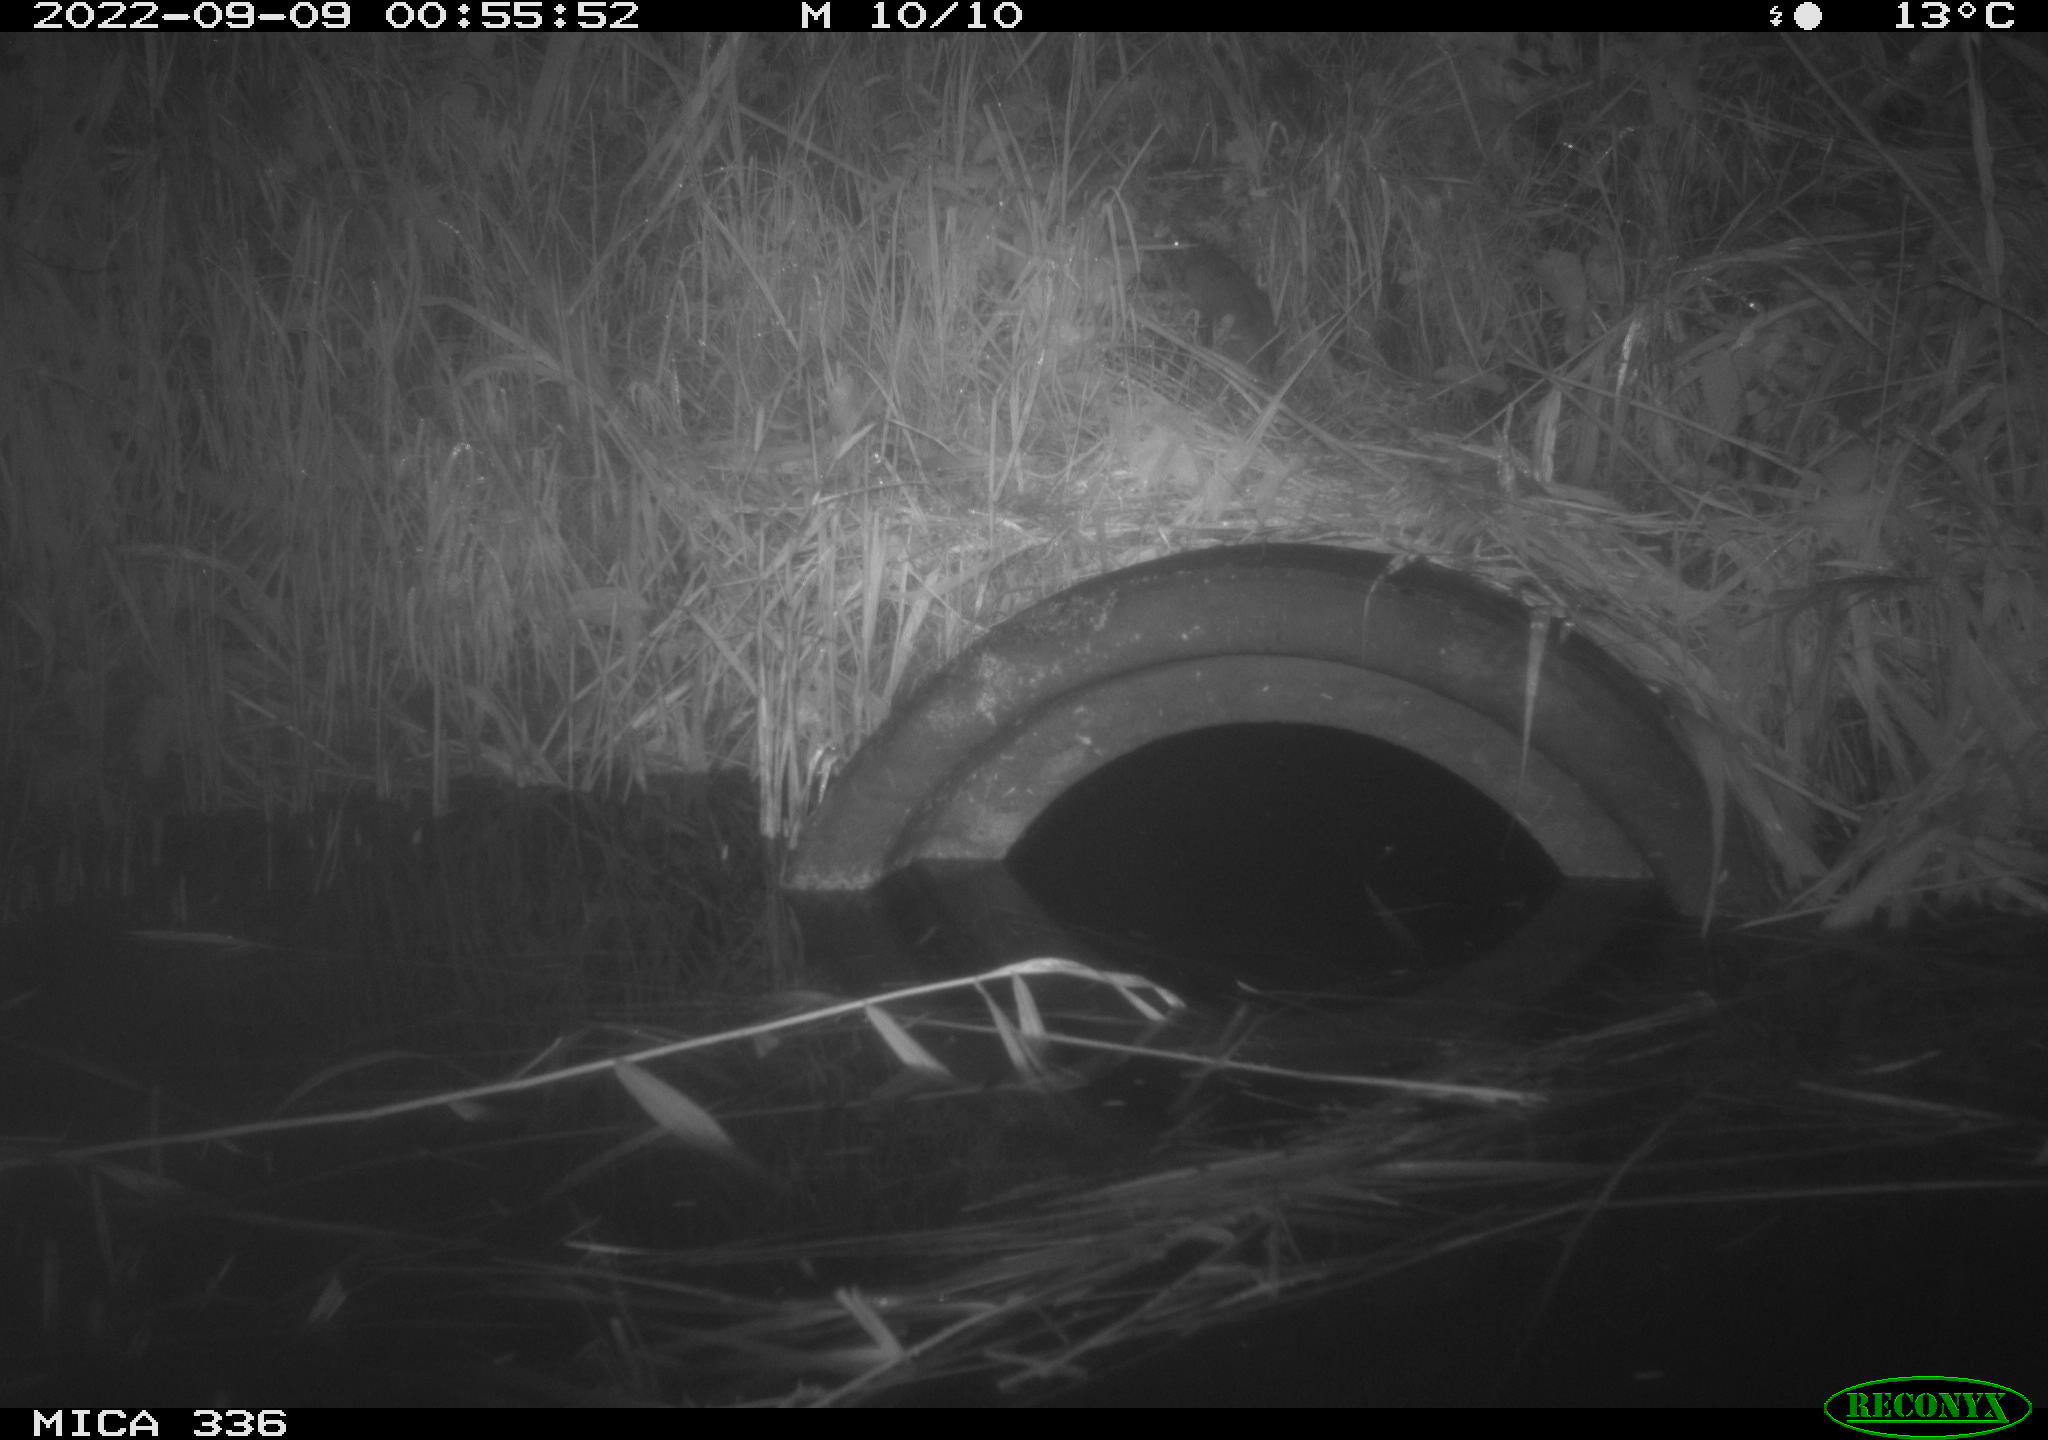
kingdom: Animalia
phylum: Chordata
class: Mammalia
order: Rodentia
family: Muridae
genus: Rattus
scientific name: Rattus norvegicus
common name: Brown rat
